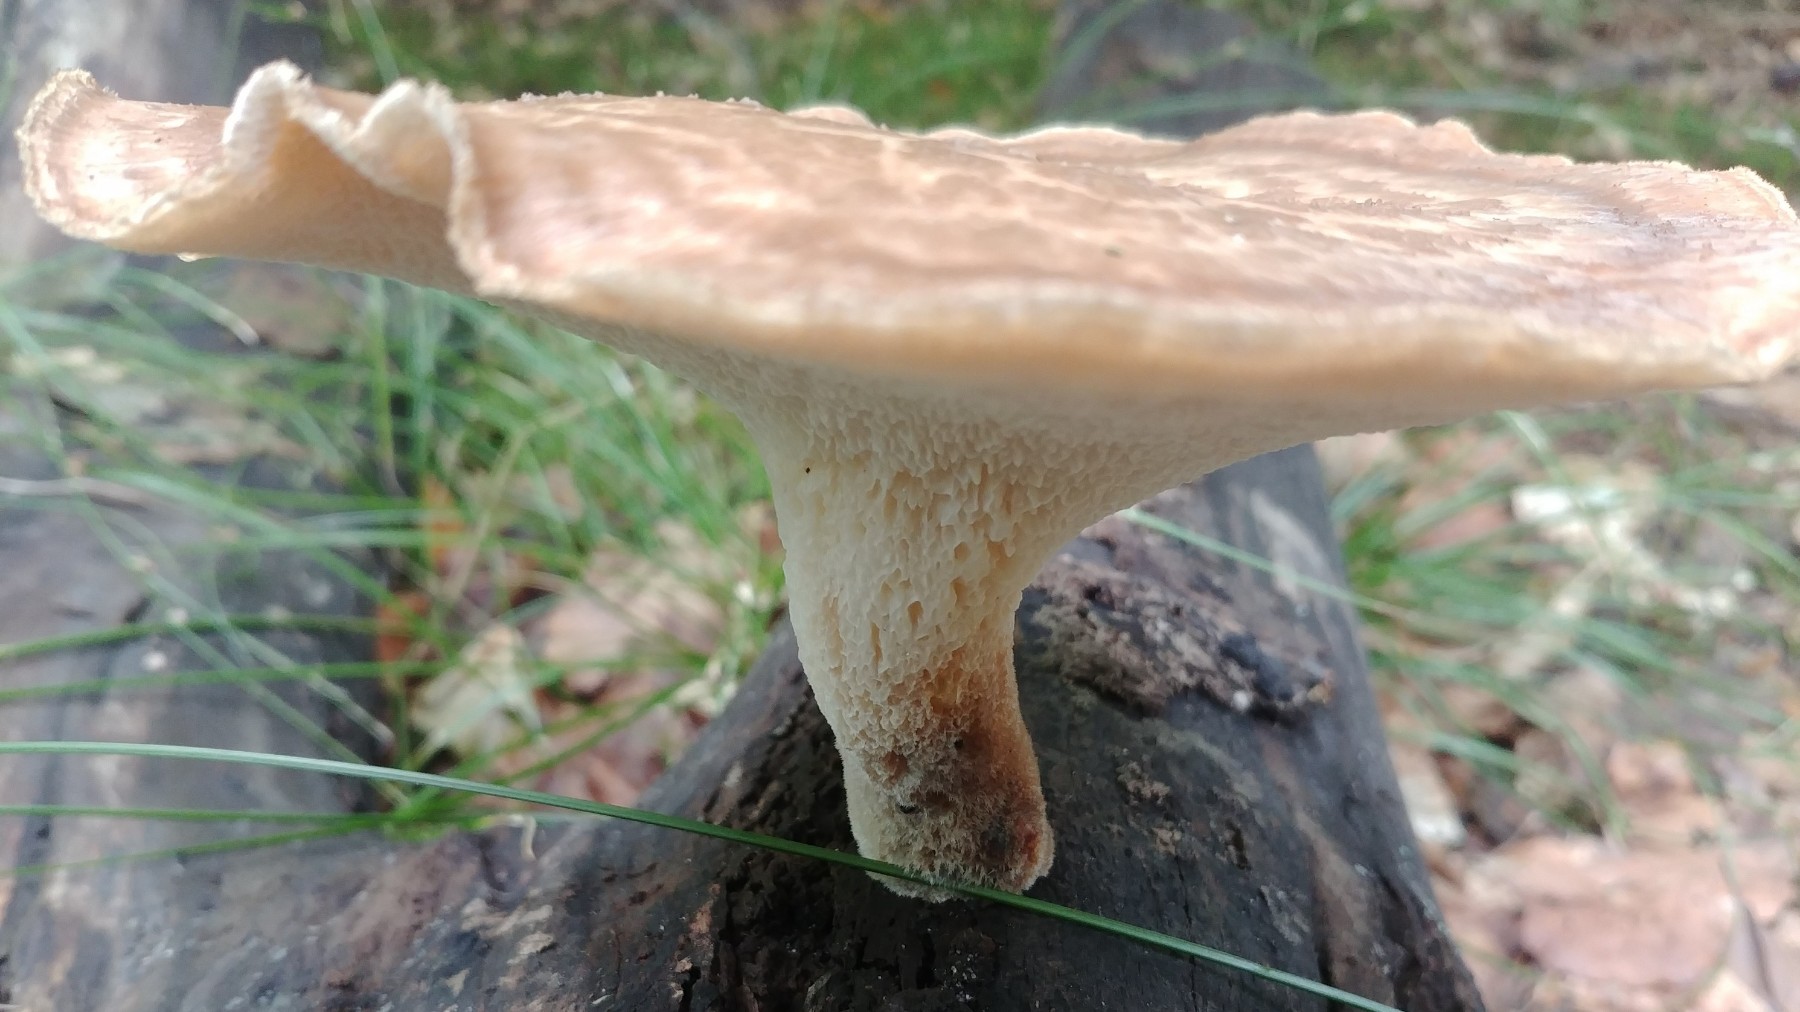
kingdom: Fungi
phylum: Basidiomycota
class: Agaricomycetes
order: Polyporales
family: Polyporaceae
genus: Polyporus
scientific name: Polyporus tuberaster
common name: knoldet stilkporesvamp
